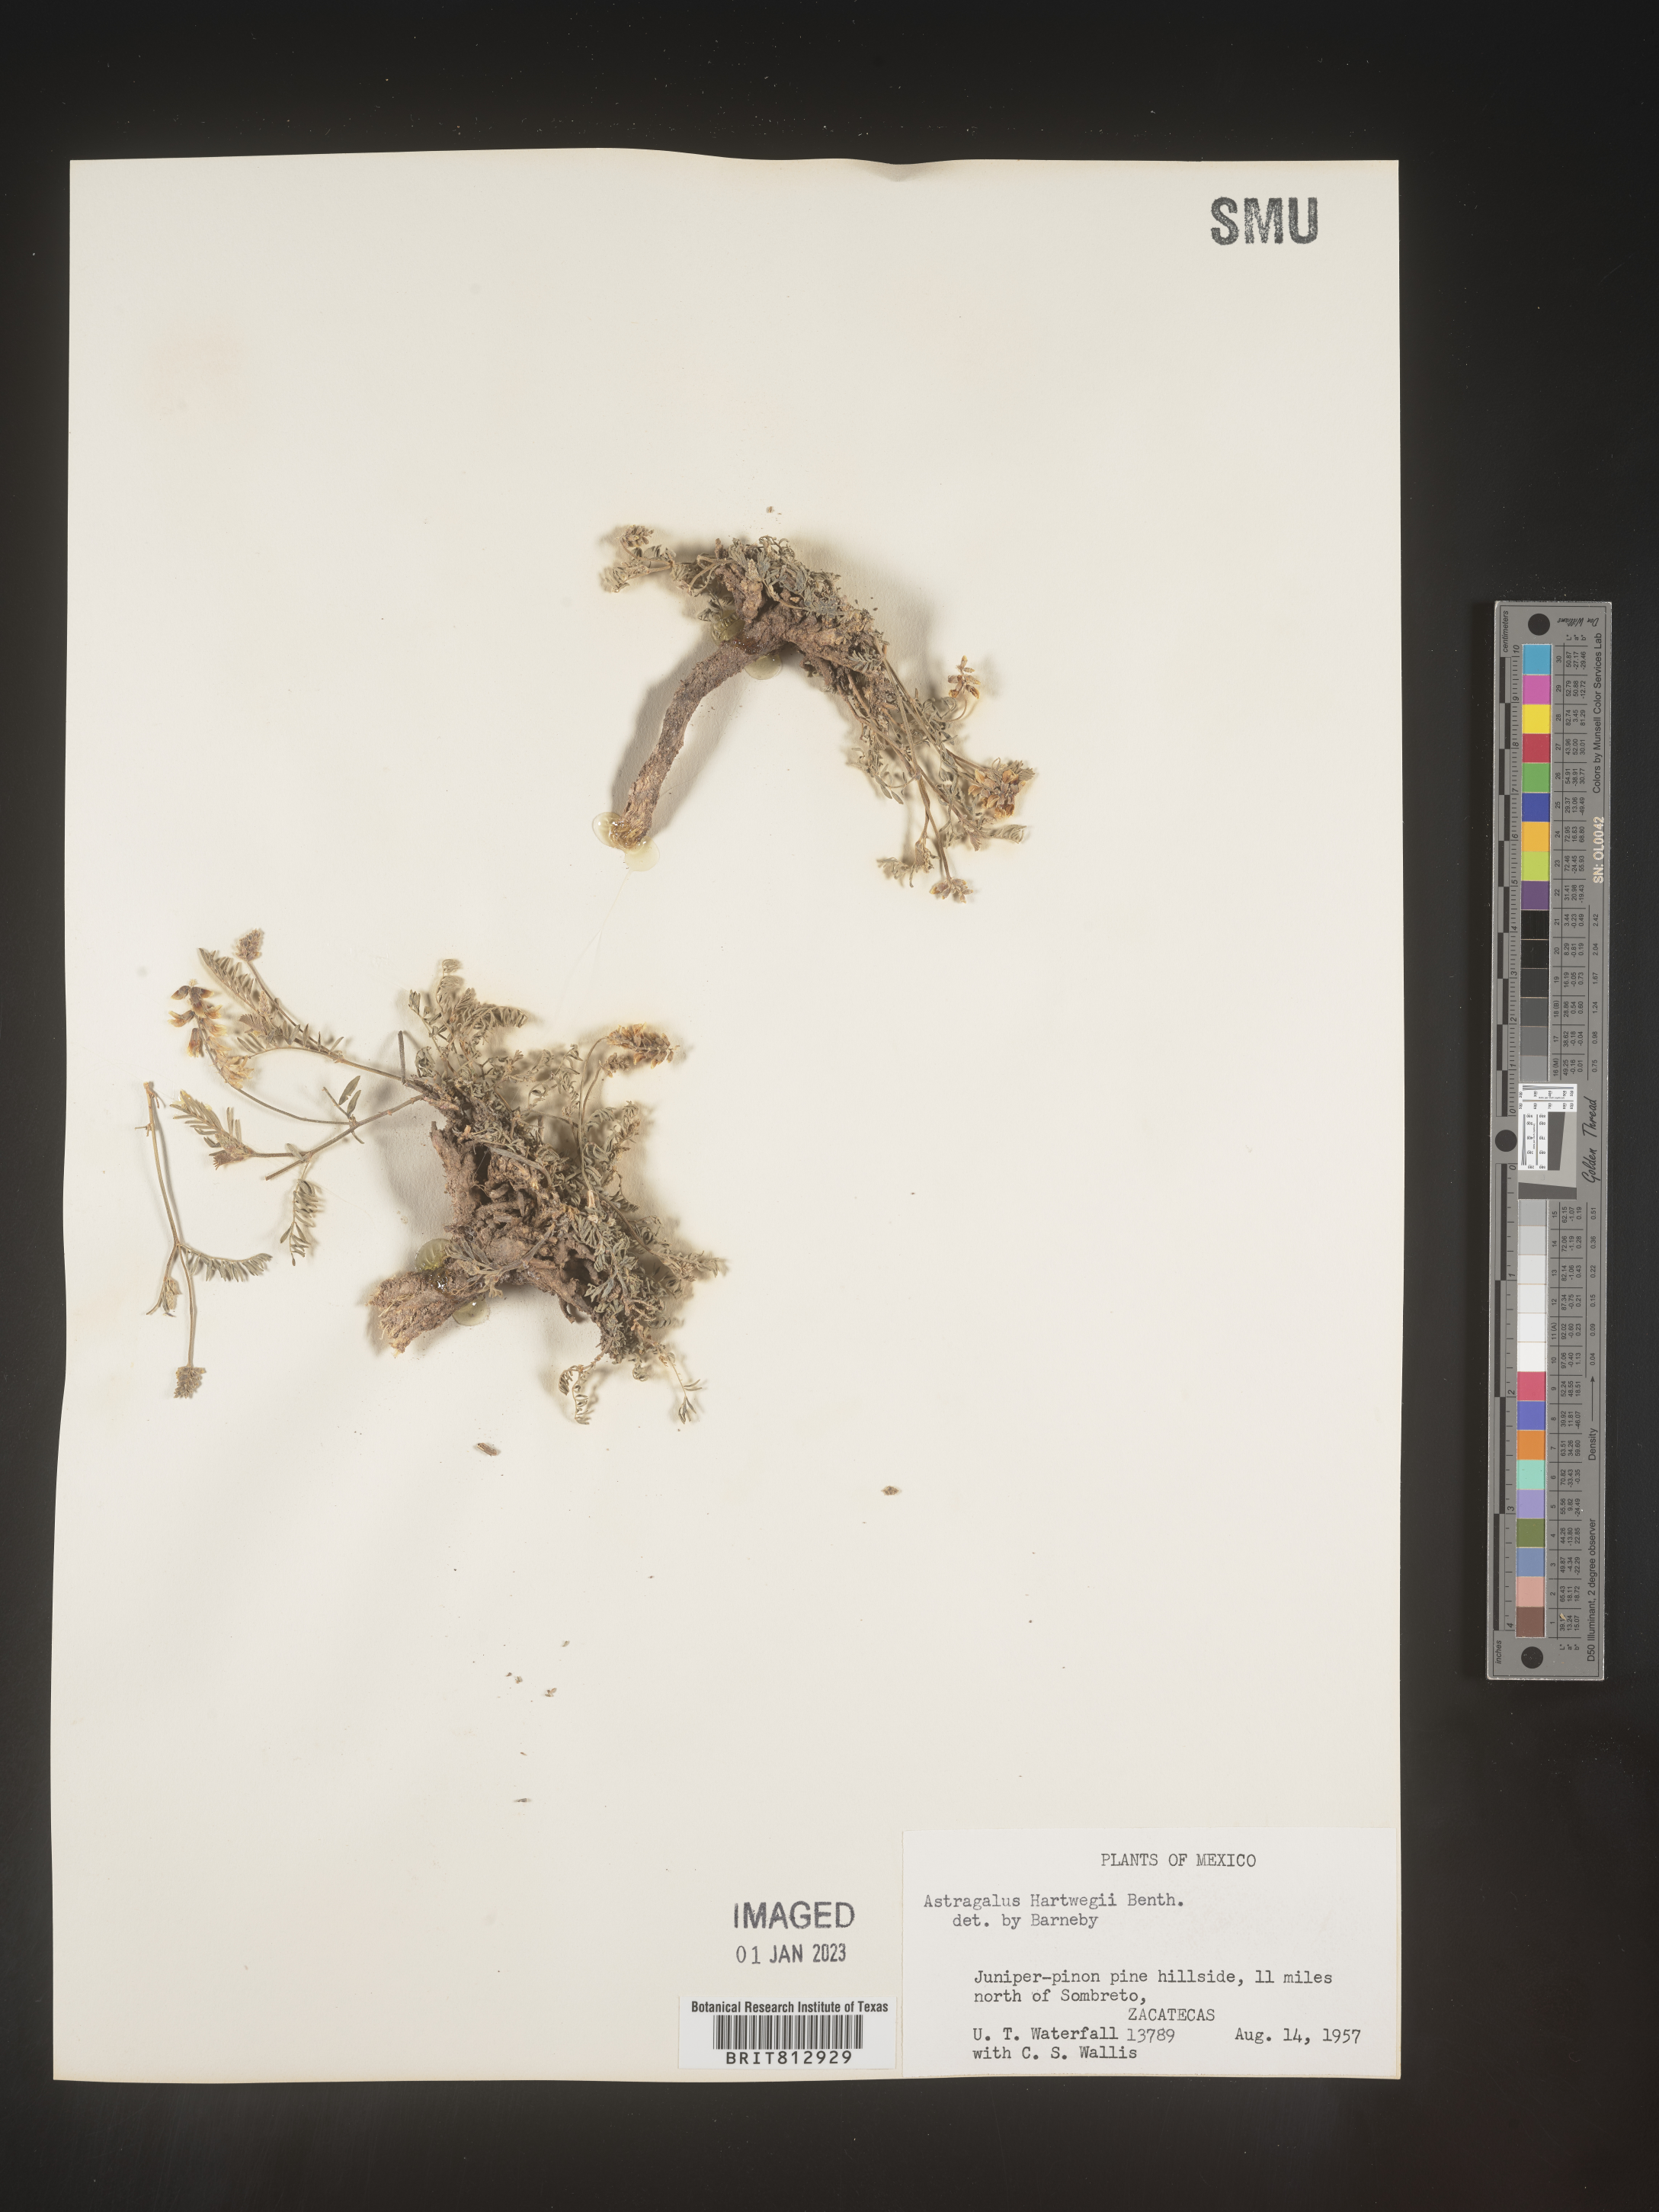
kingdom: Plantae
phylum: Tracheophyta
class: Magnoliopsida
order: Fabales
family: Fabaceae
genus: Astragalus
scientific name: Astragalus
